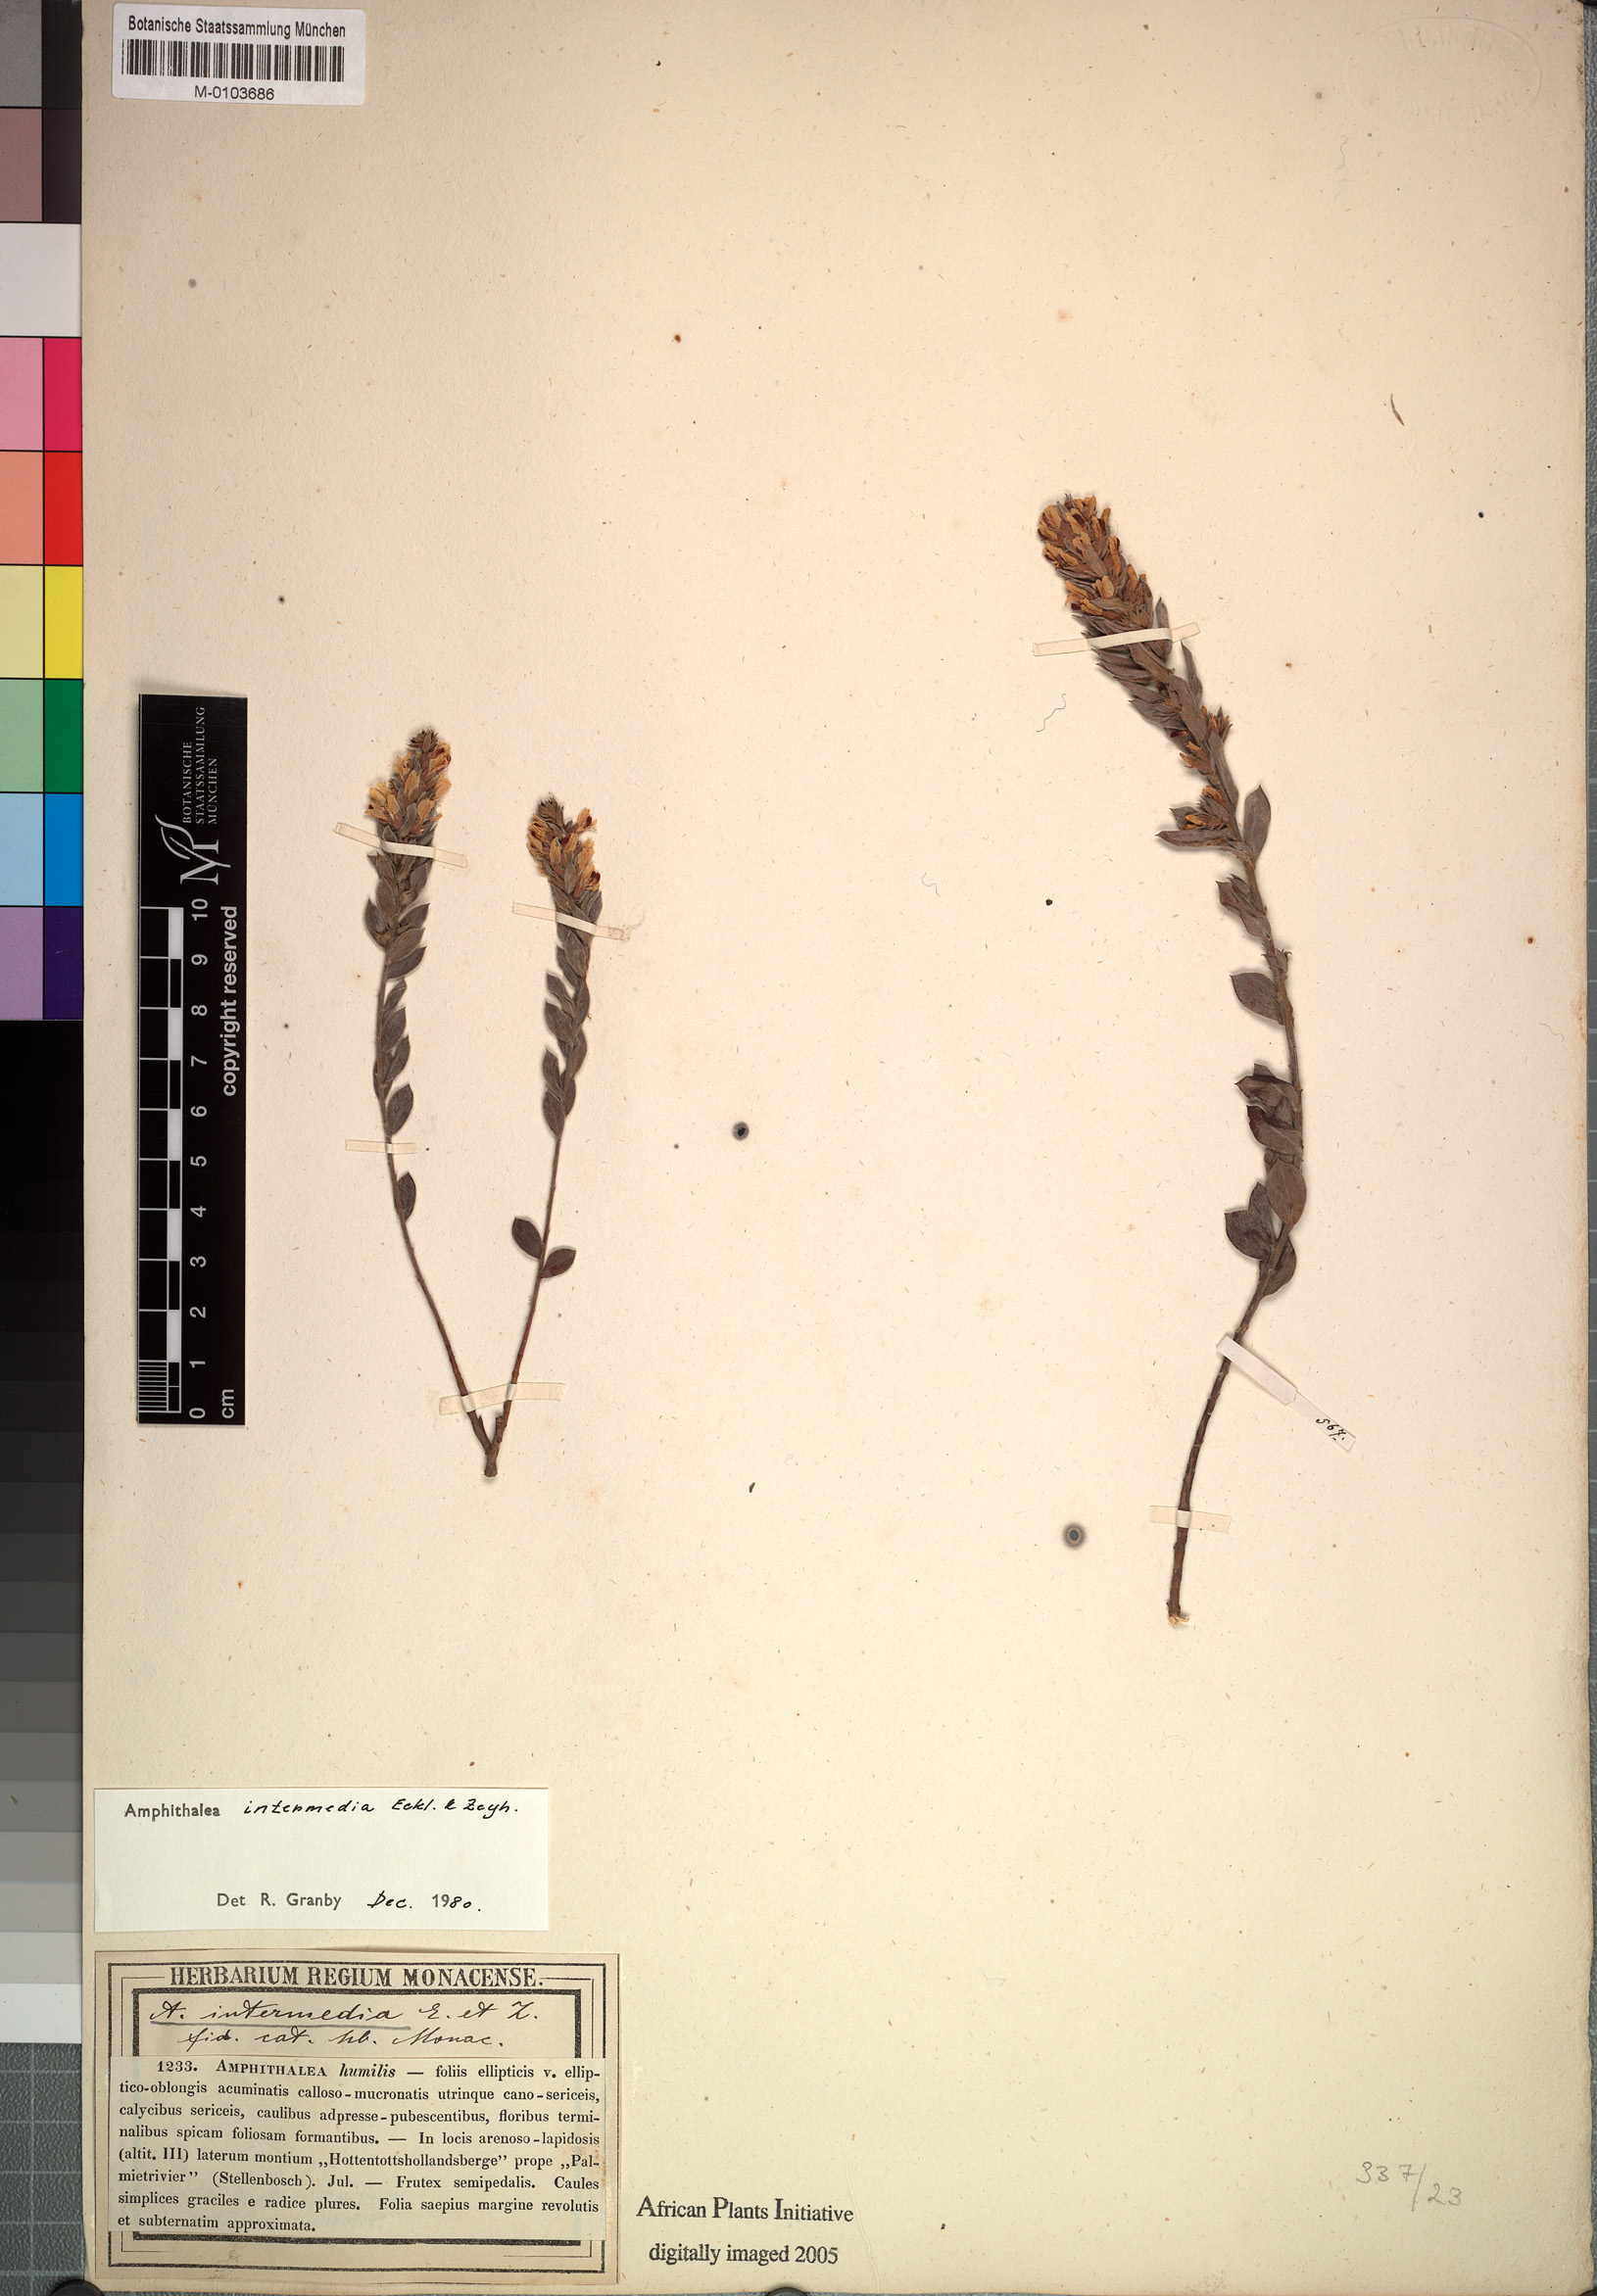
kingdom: Plantae
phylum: Tracheophyta
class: Magnoliopsida
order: Fabales
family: Fabaceae
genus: Amphithalea
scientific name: Amphithalea intermedia
